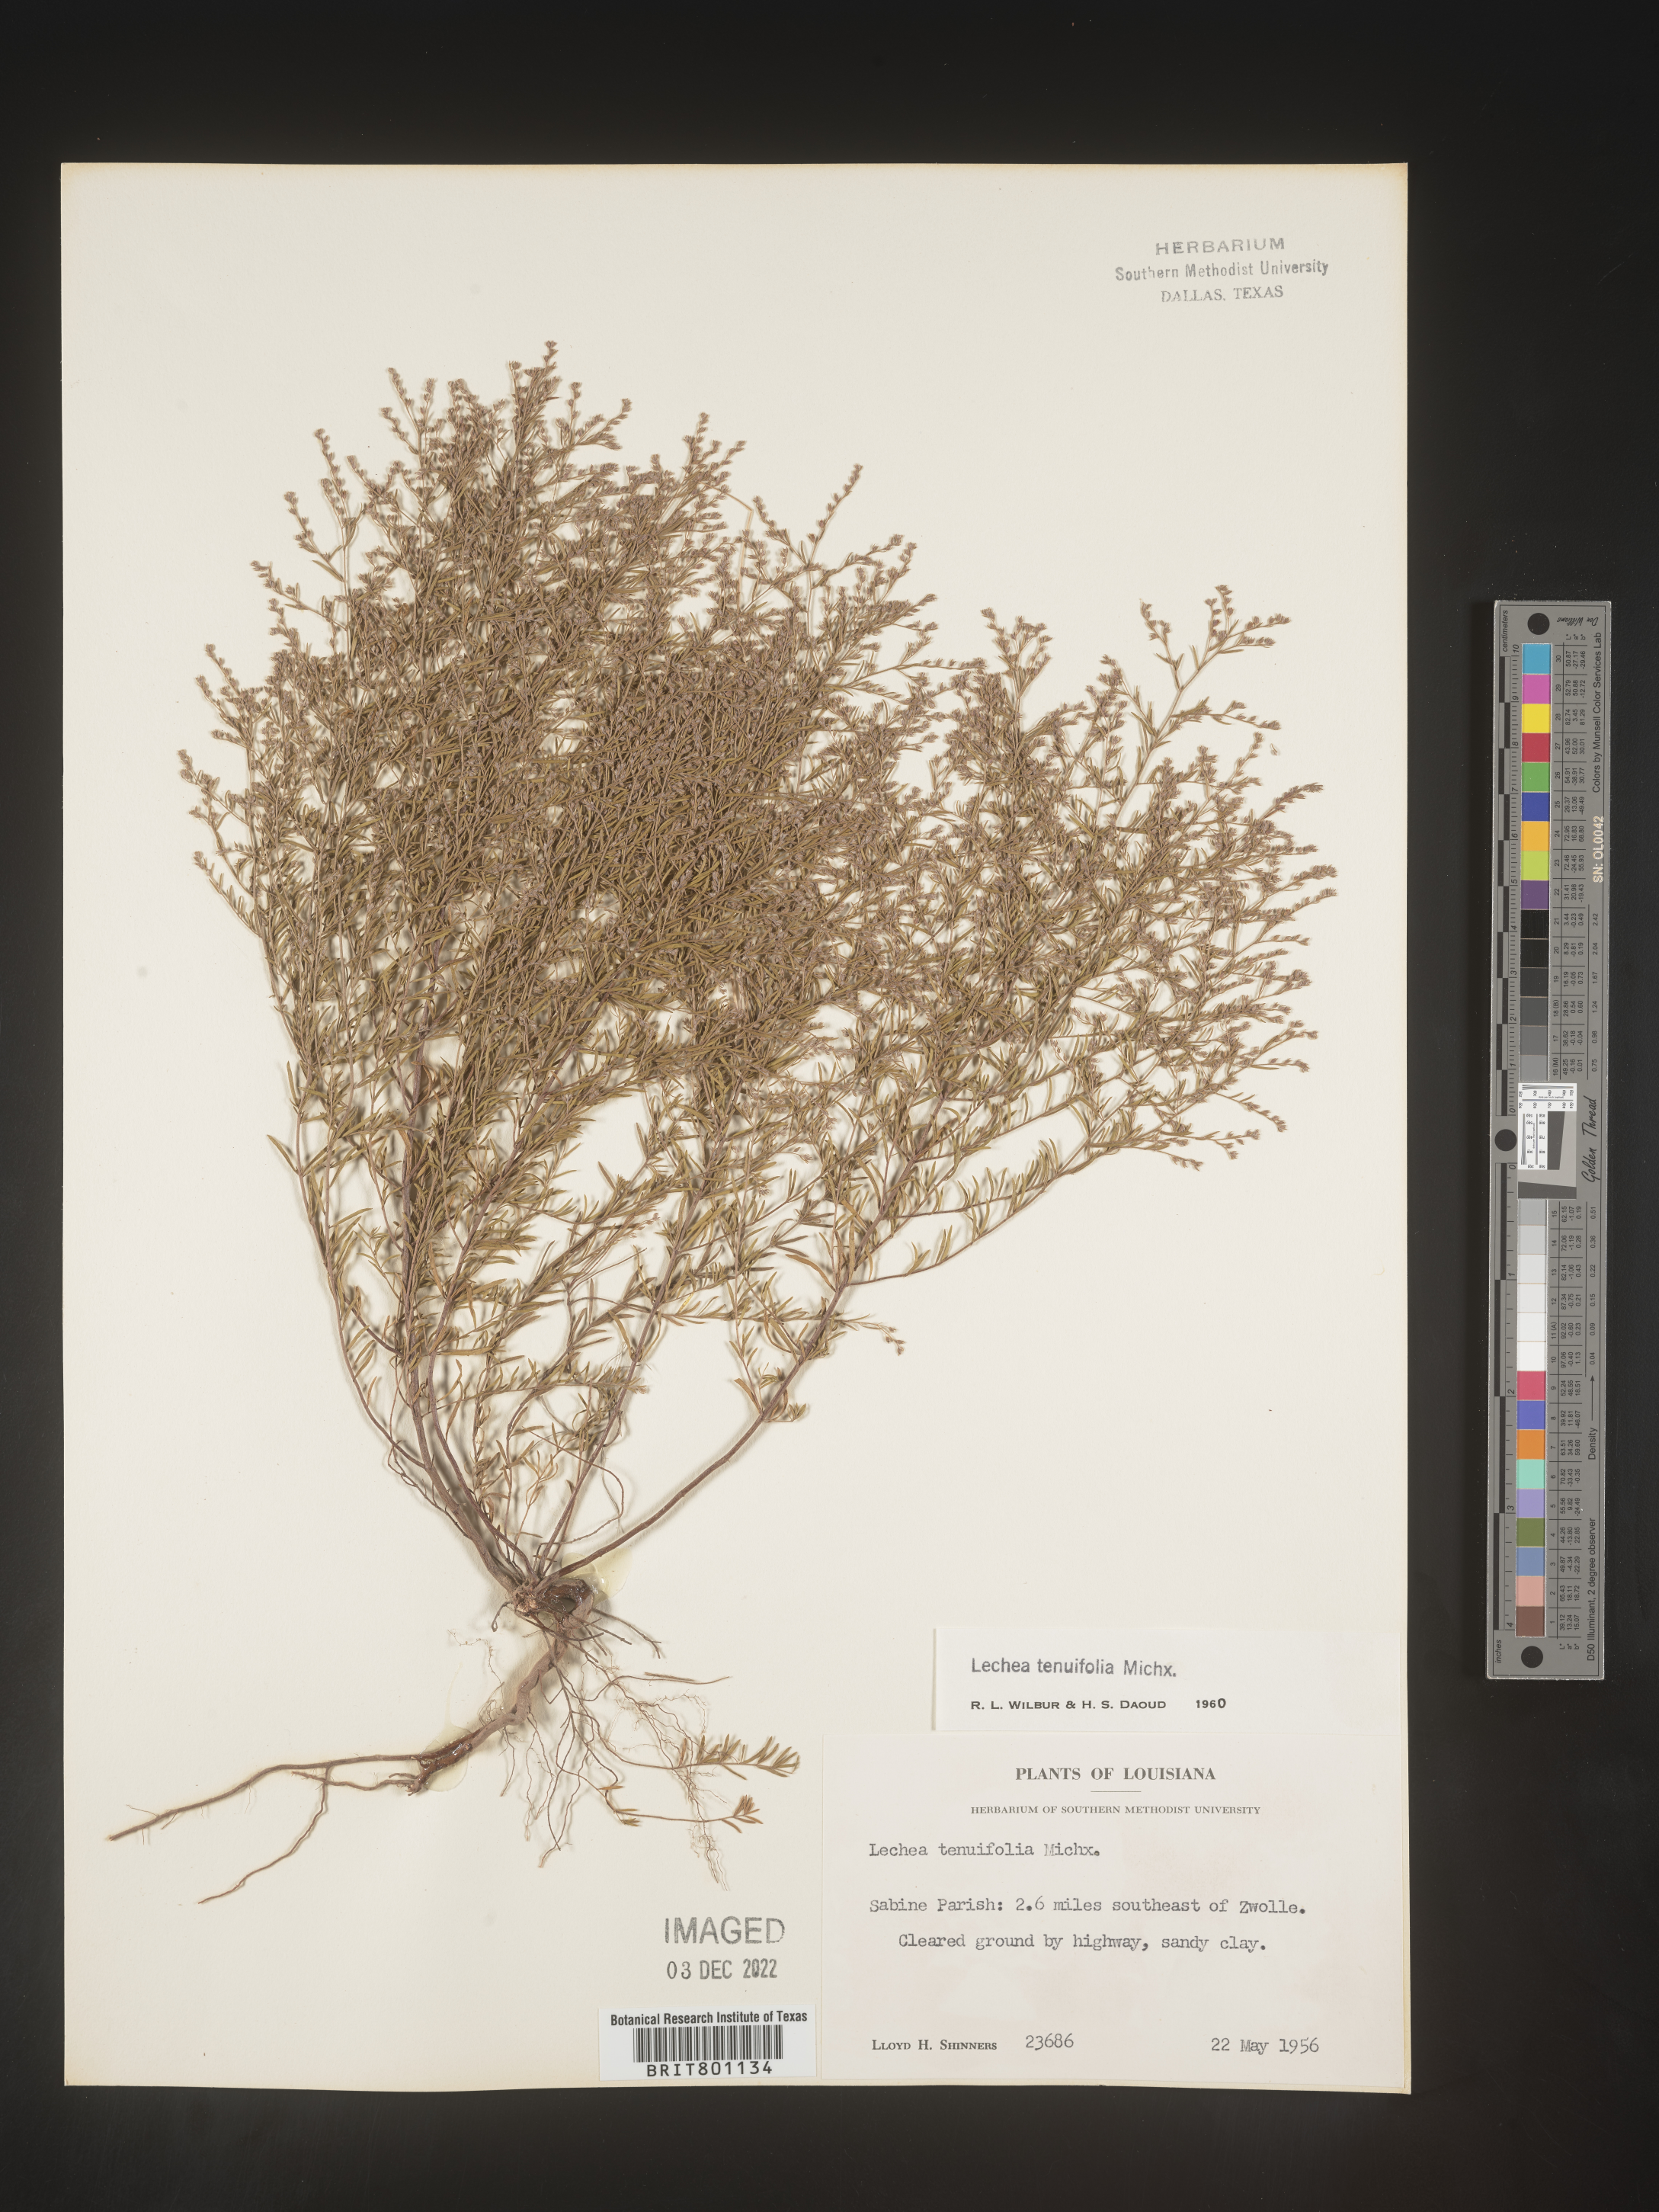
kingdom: Plantae
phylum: Tracheophyta
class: Magnoliopsida
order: Malvales
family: Cistaceae
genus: Lechea
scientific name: Lechea tenuifolia
